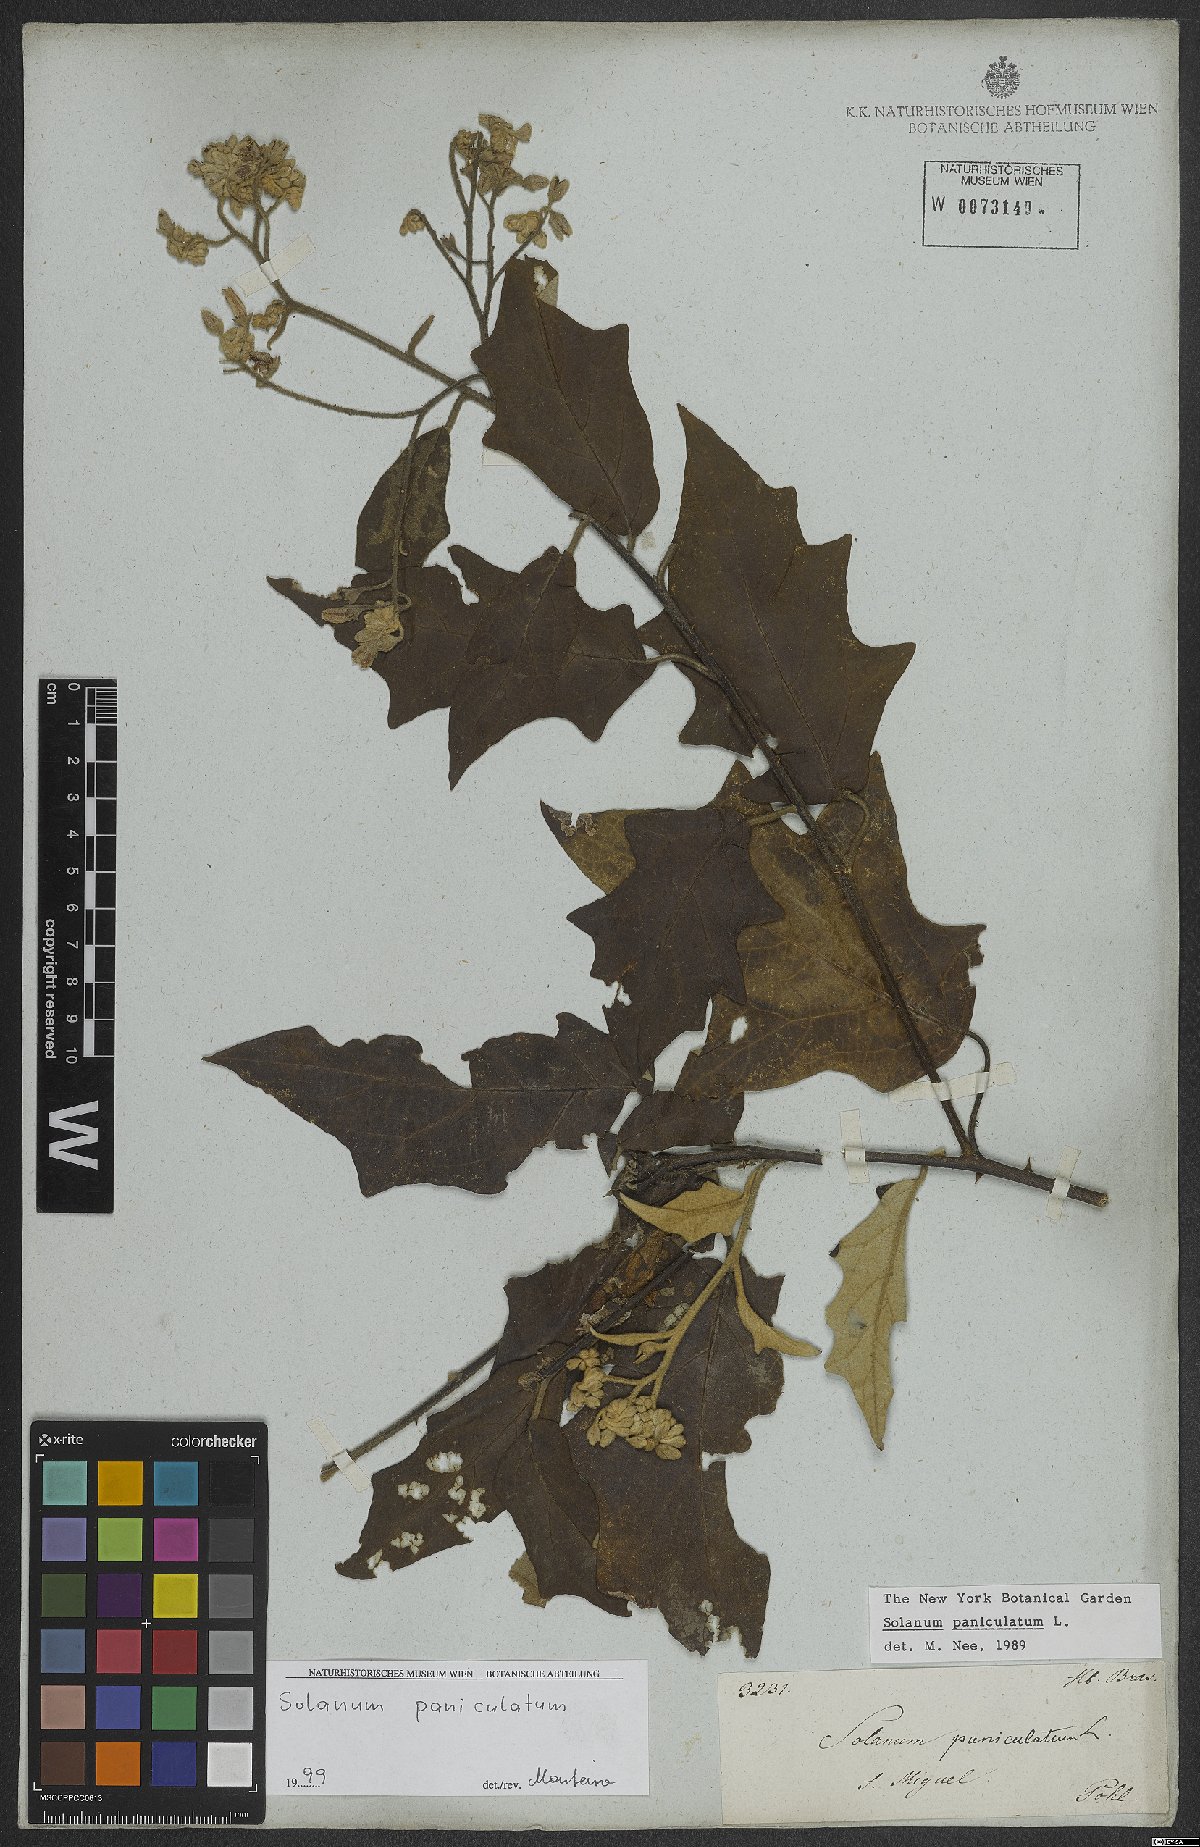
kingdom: Plantae
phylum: Tracheophyta
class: Magnoliopsida
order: Solanales
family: Solanaceae
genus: Solanum
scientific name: Solanum paniculatum
